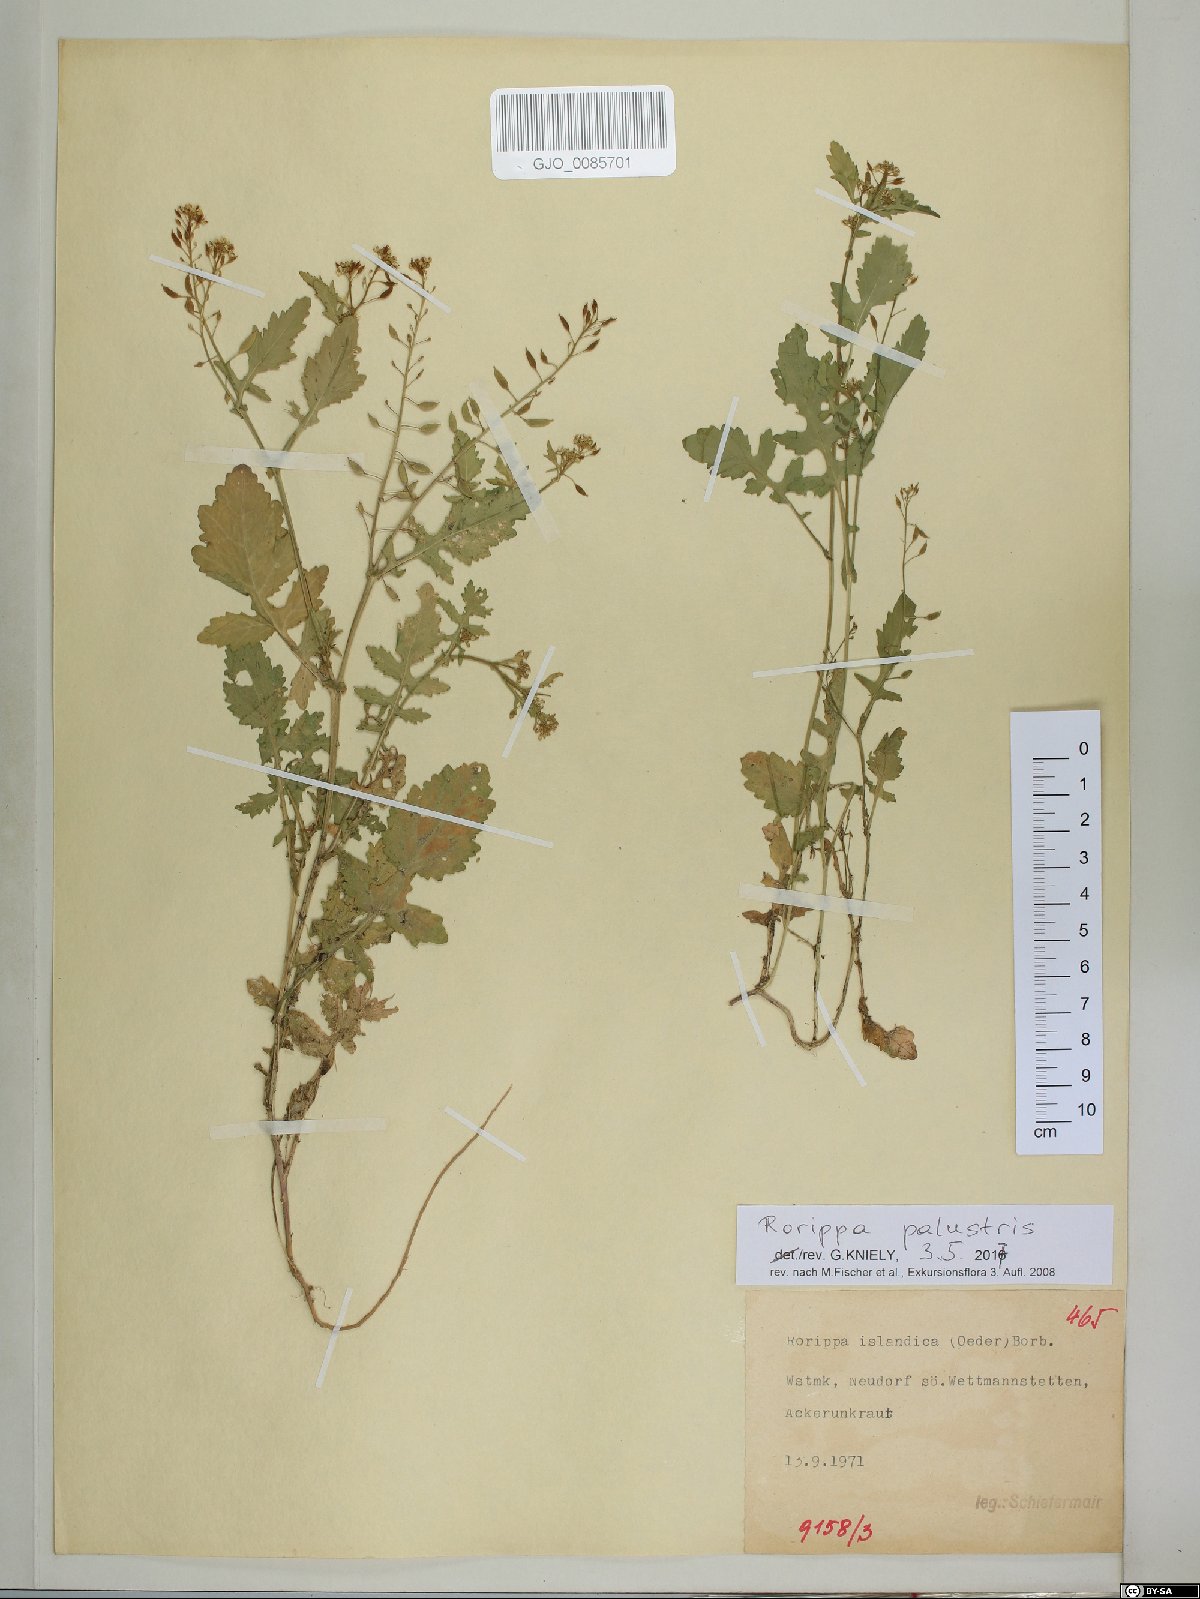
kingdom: Plantae
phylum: Tracheophyta
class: Magnoliopsida
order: Brassicales
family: Brassicaceae
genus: Rorippa
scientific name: Rorippa palustris
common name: Marsh yellow-cress
